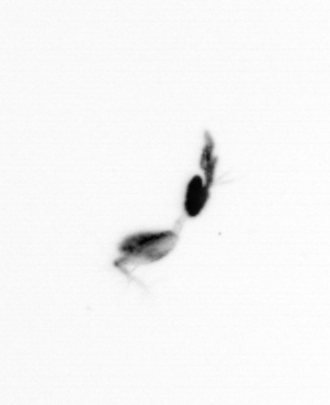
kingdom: Animalia
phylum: Arthropoda
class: Copepoda
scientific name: Copepoda
